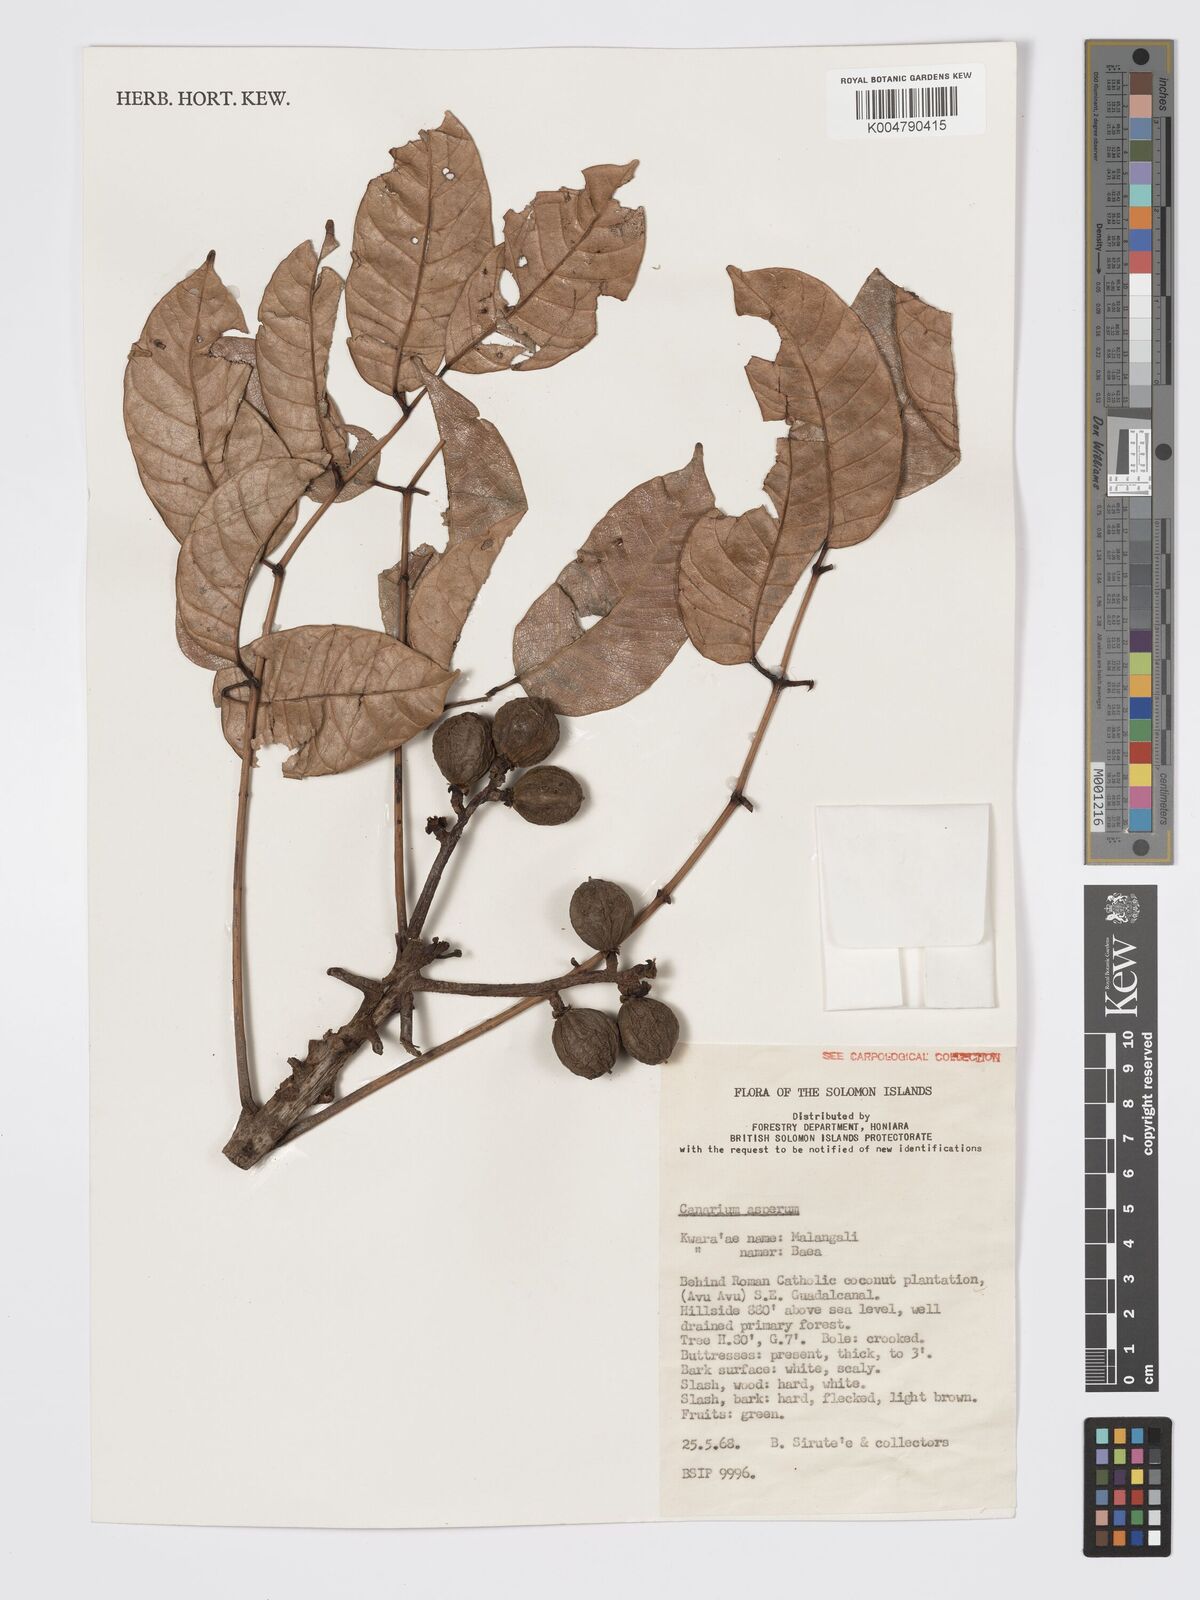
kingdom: Plantae
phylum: Tracheophyta
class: Magnoliopsida
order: Sapindales
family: Burseraceae
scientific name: Burseraceae
